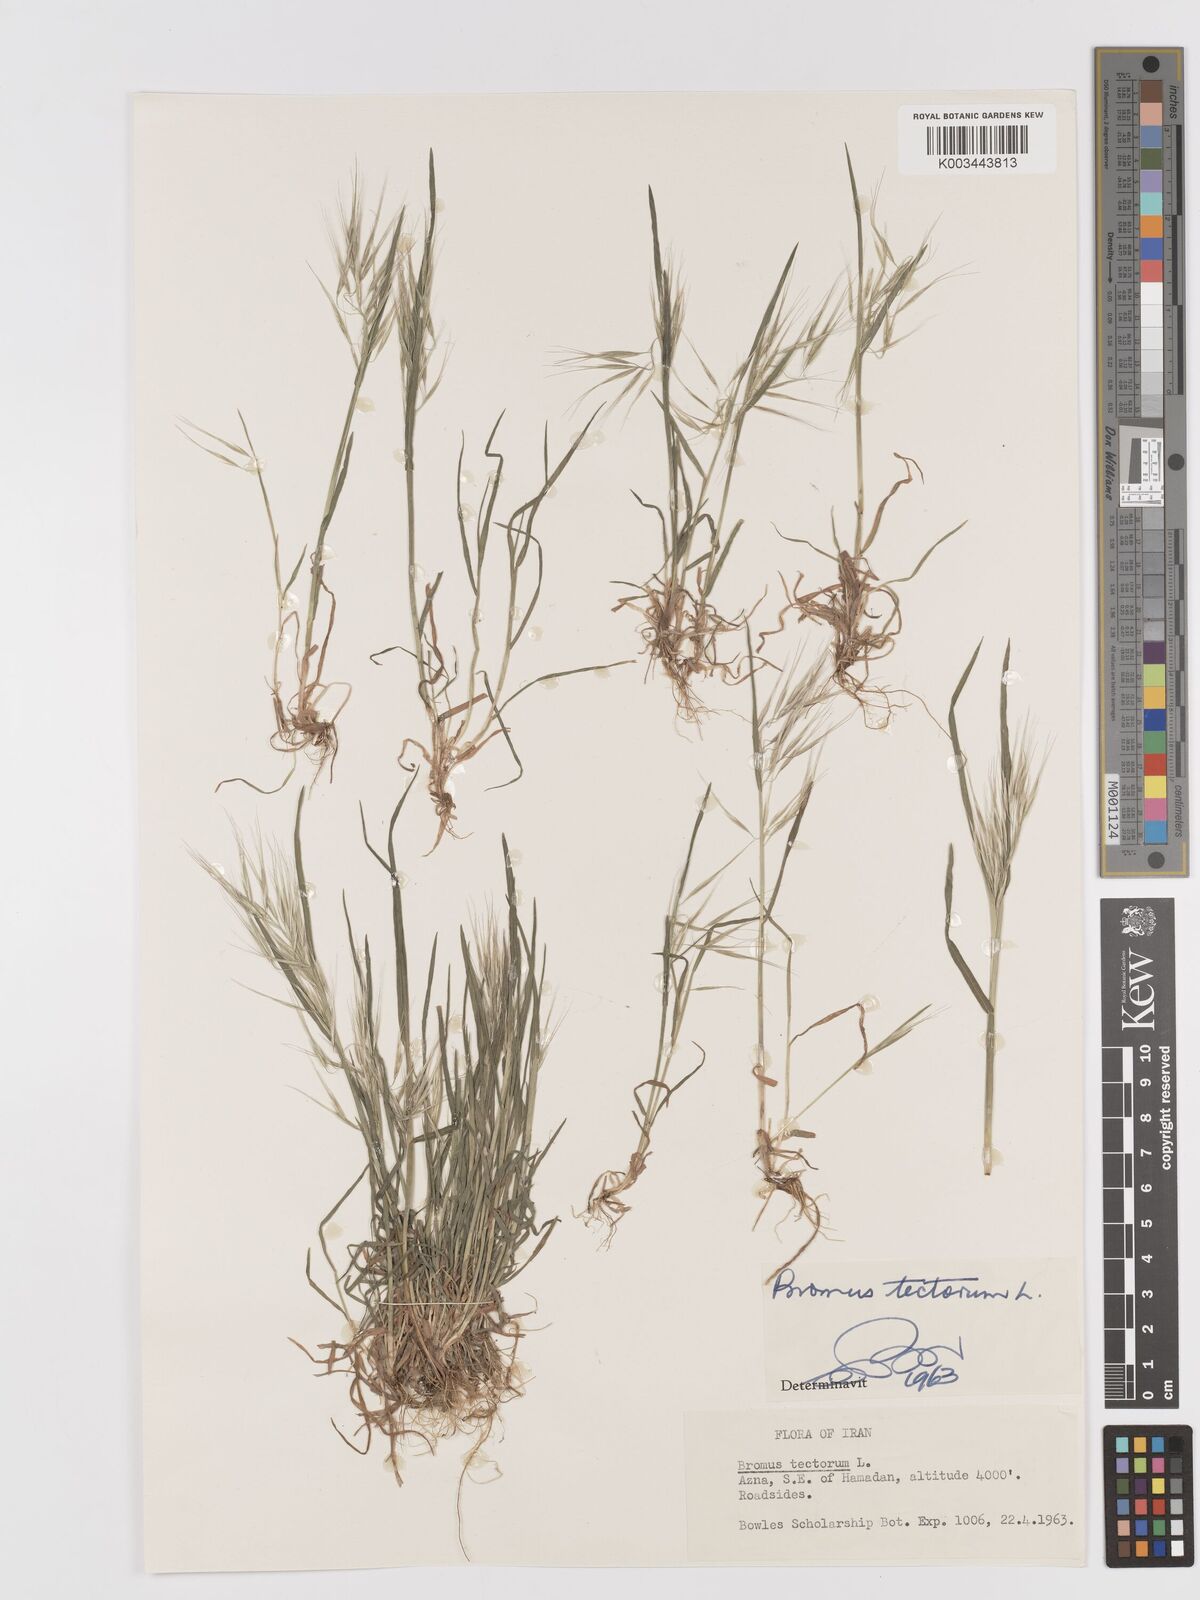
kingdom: Plantae
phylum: Tracheophyta
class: Liliopsida
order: Poales
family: Poaceae
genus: Bromus
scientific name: Bromus tectorum
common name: Cheatgrass
